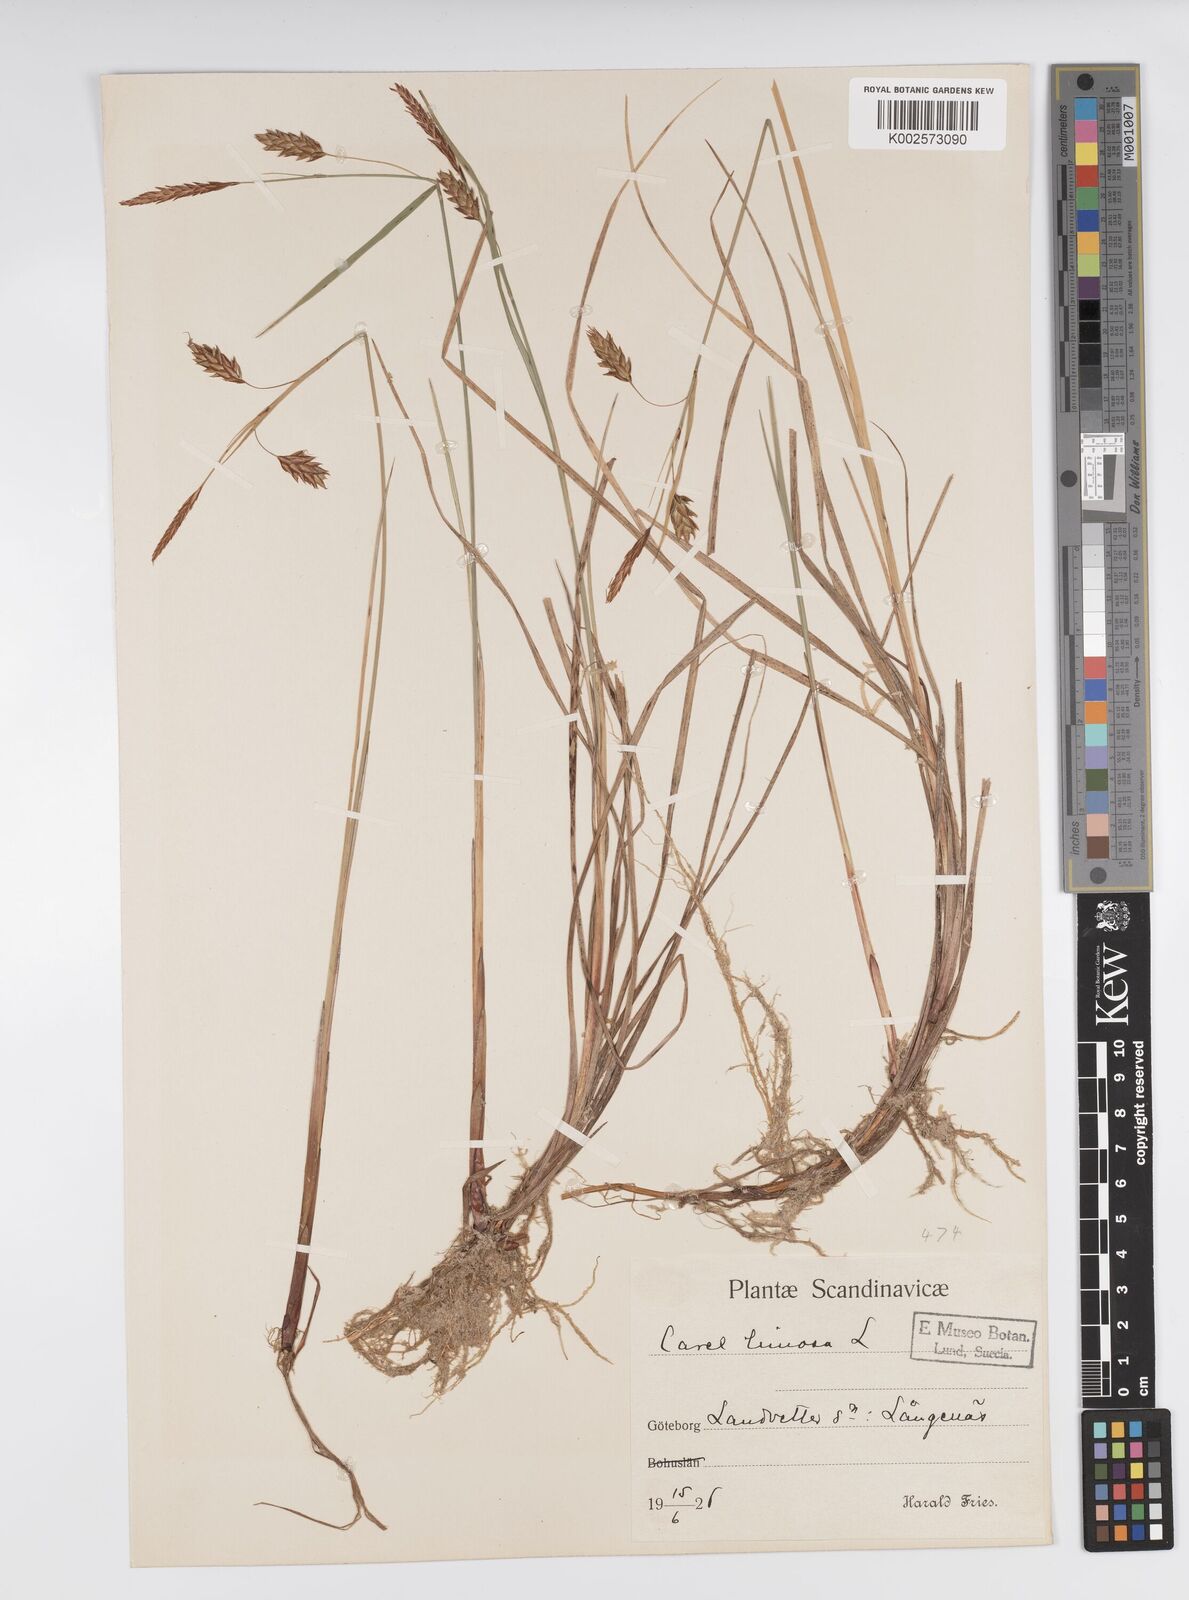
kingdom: Plantae
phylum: Tracheophyta
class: Liliopsida
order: Poales
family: Cyperaceae
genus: Carex
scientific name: Carex limosa
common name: Bog sedge
